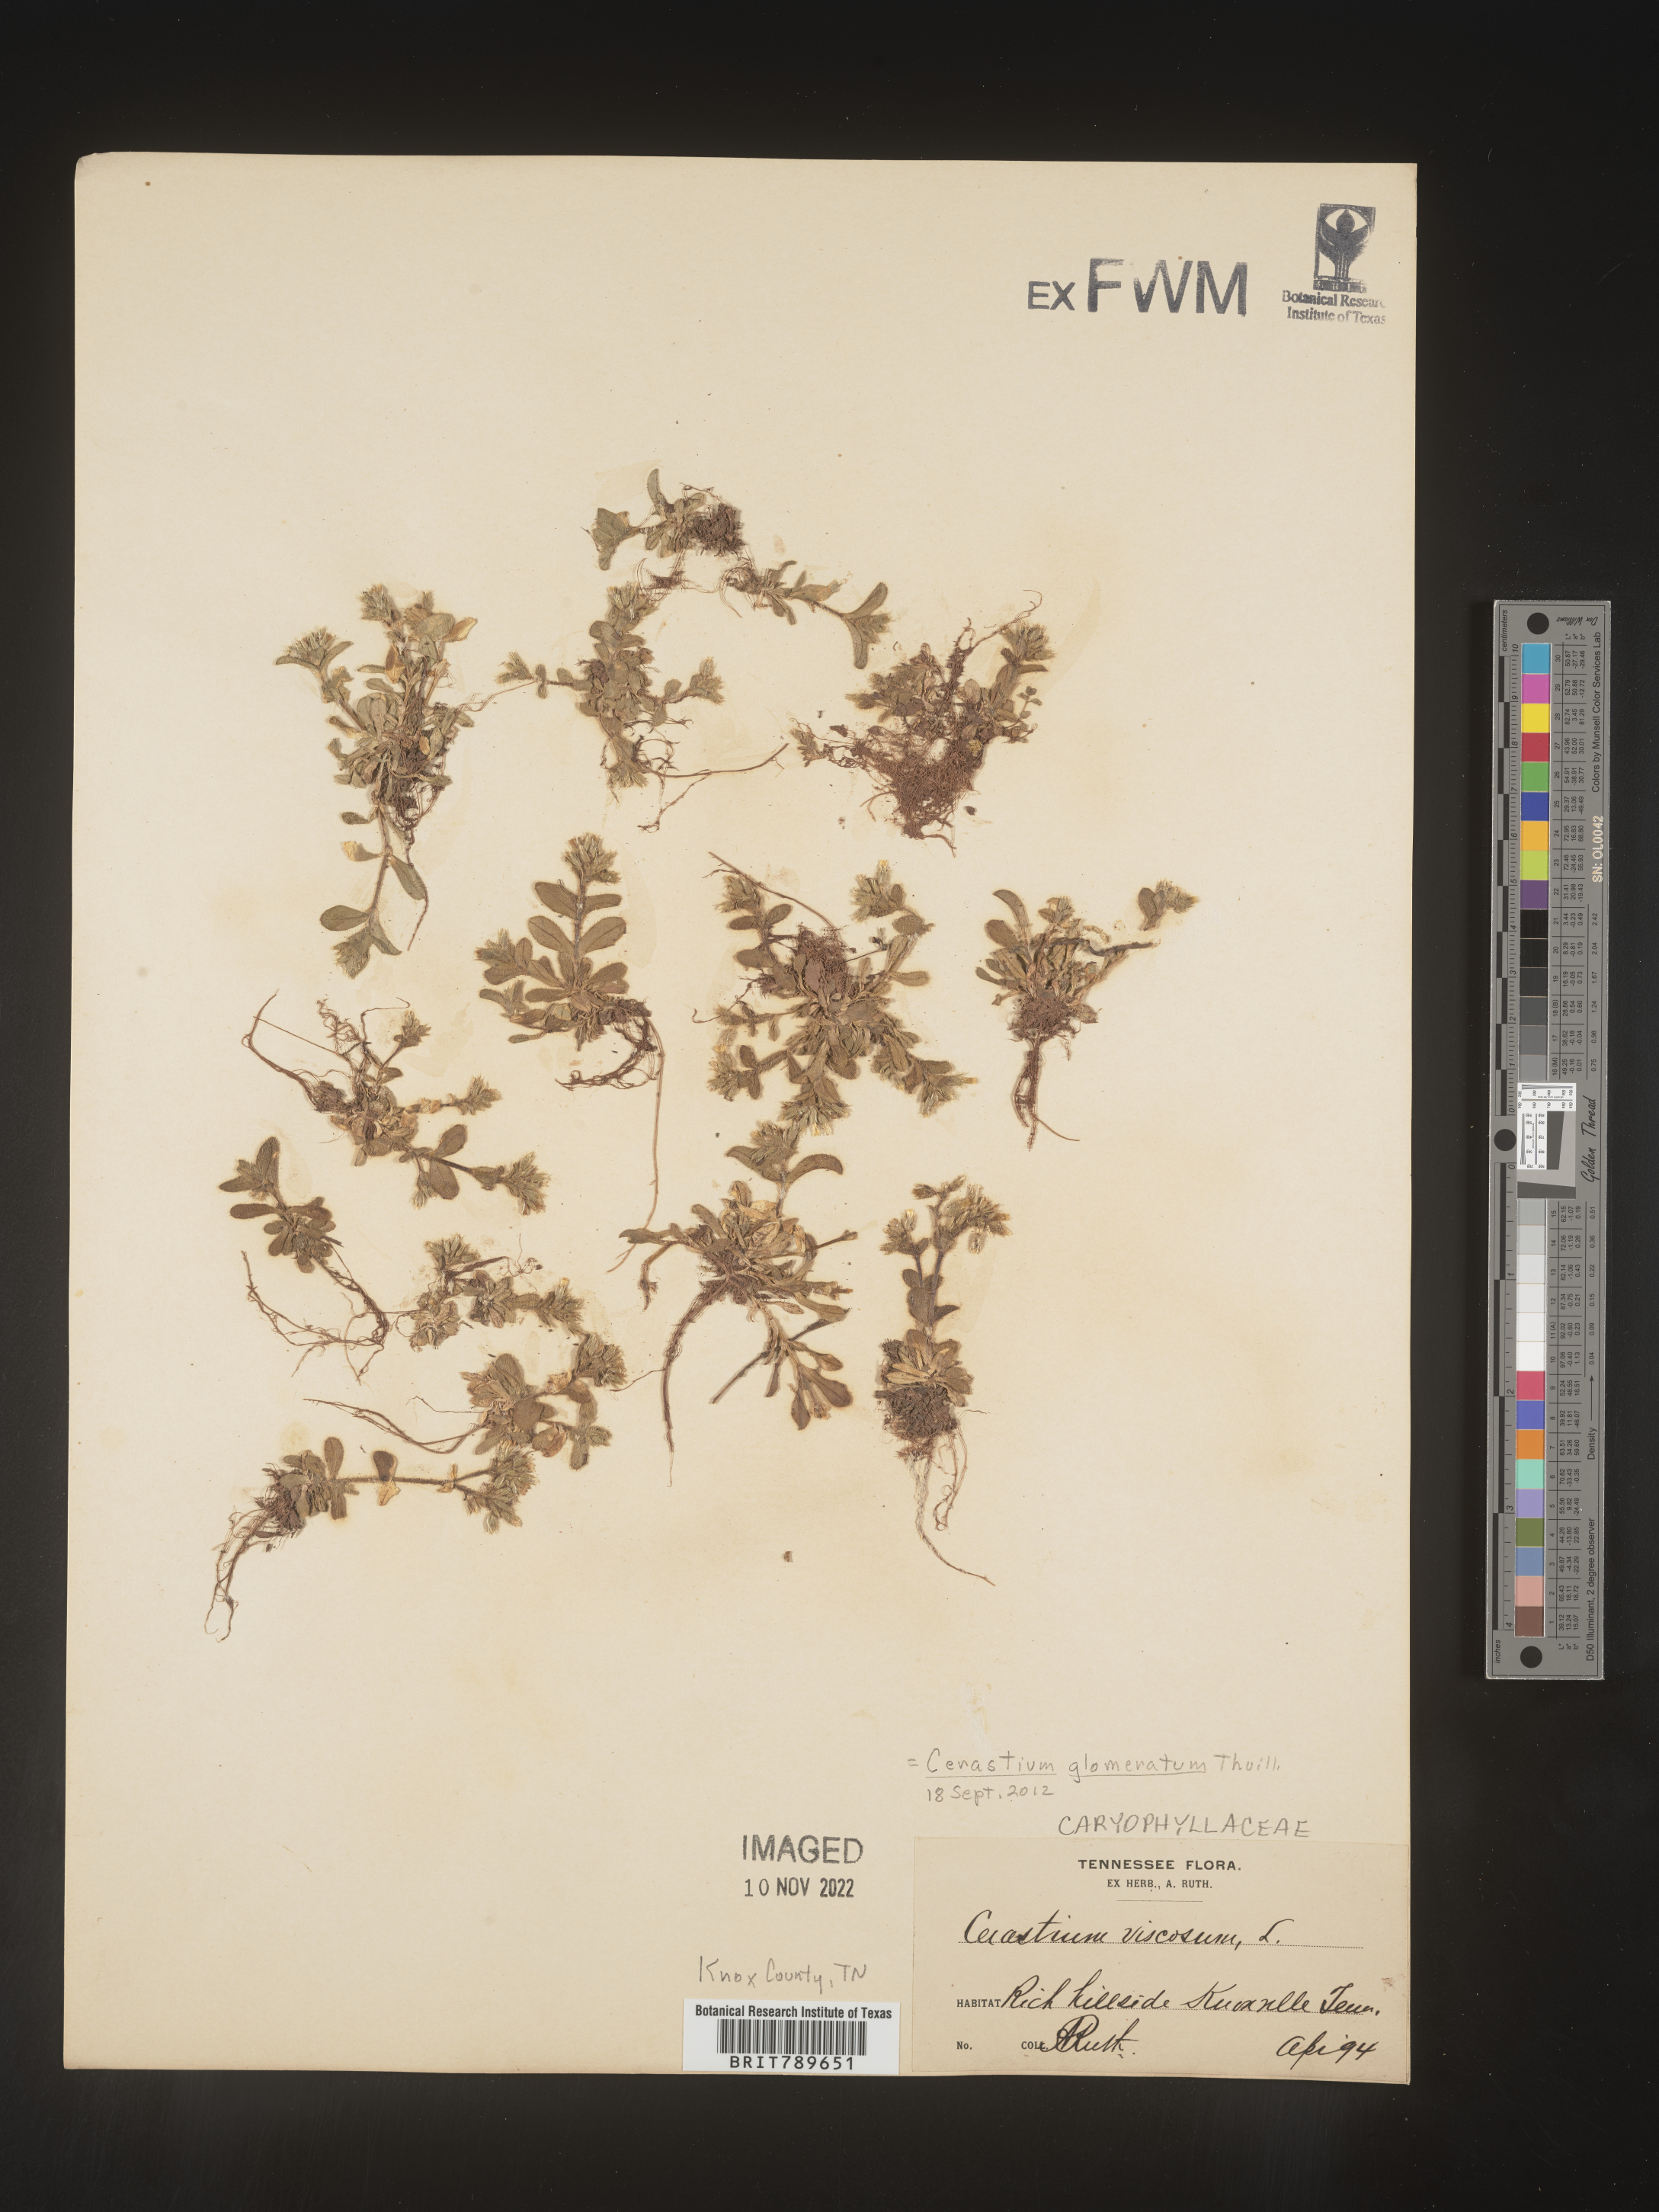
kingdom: Plantae
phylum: Tracheophyta
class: Magnoliopsida
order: Caryophyllales
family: Caryophyllaceae
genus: Cerastium
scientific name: Cerastium glomeratum
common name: Sticky chickweed
